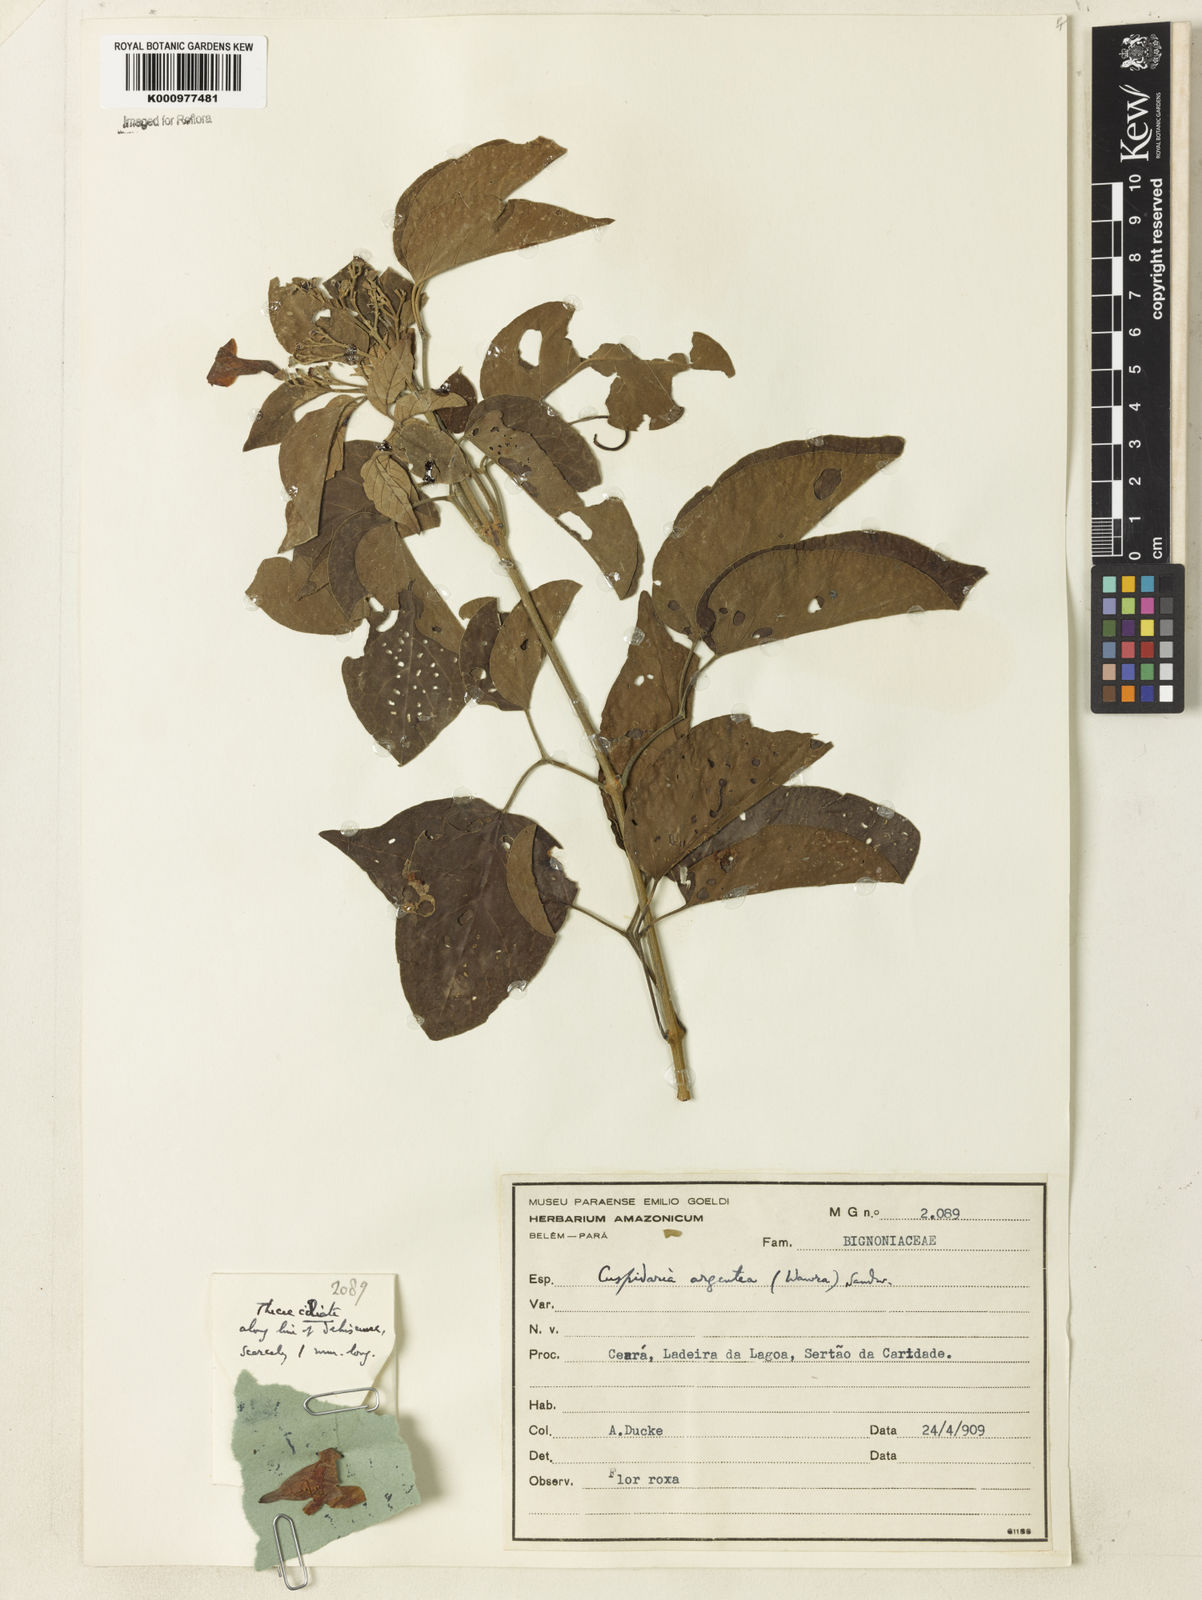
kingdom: Plantae
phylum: Tracheophyta
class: Magnoliopsida
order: Lamiales
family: Bignoniaceae
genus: Cuspidaria
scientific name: Cuspidaria argentea
